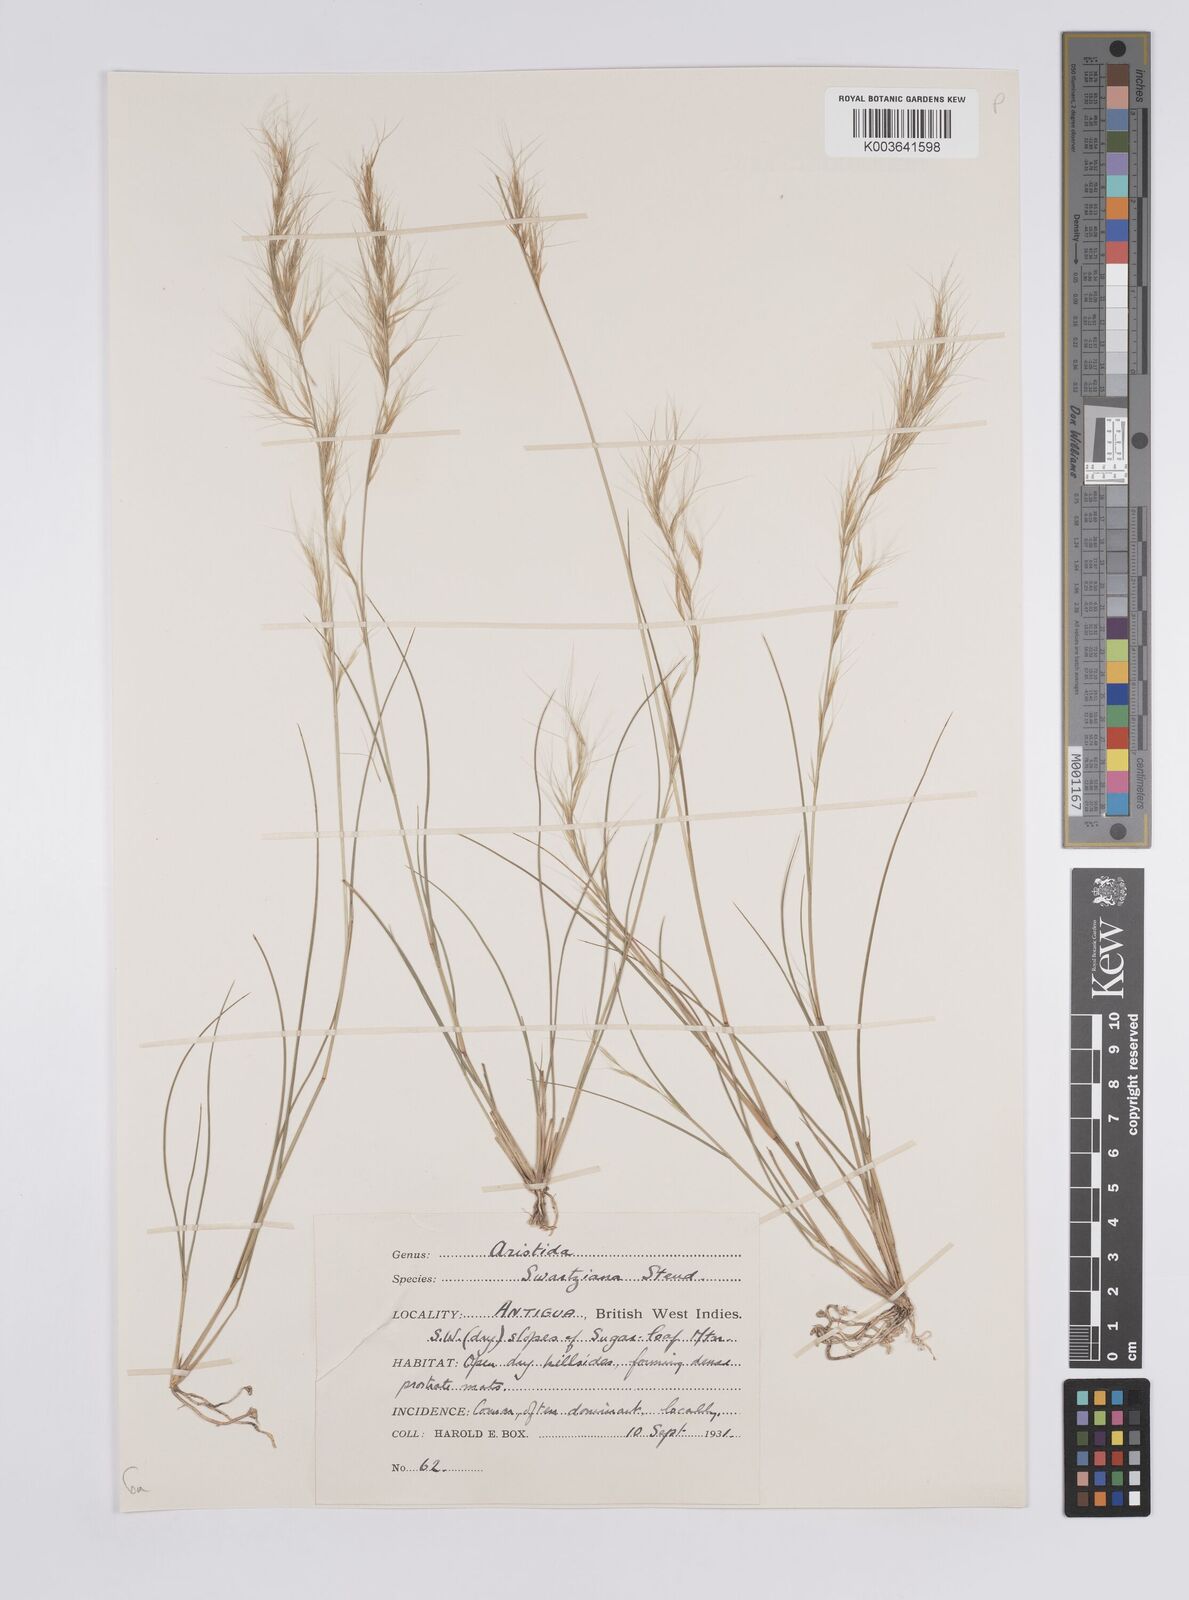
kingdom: Plantae
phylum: Tracheophyta
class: Liliopsida
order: Poales
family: Poaceae
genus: Aristida
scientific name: Aristida adscensionis
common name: Sixweeks threeawn
